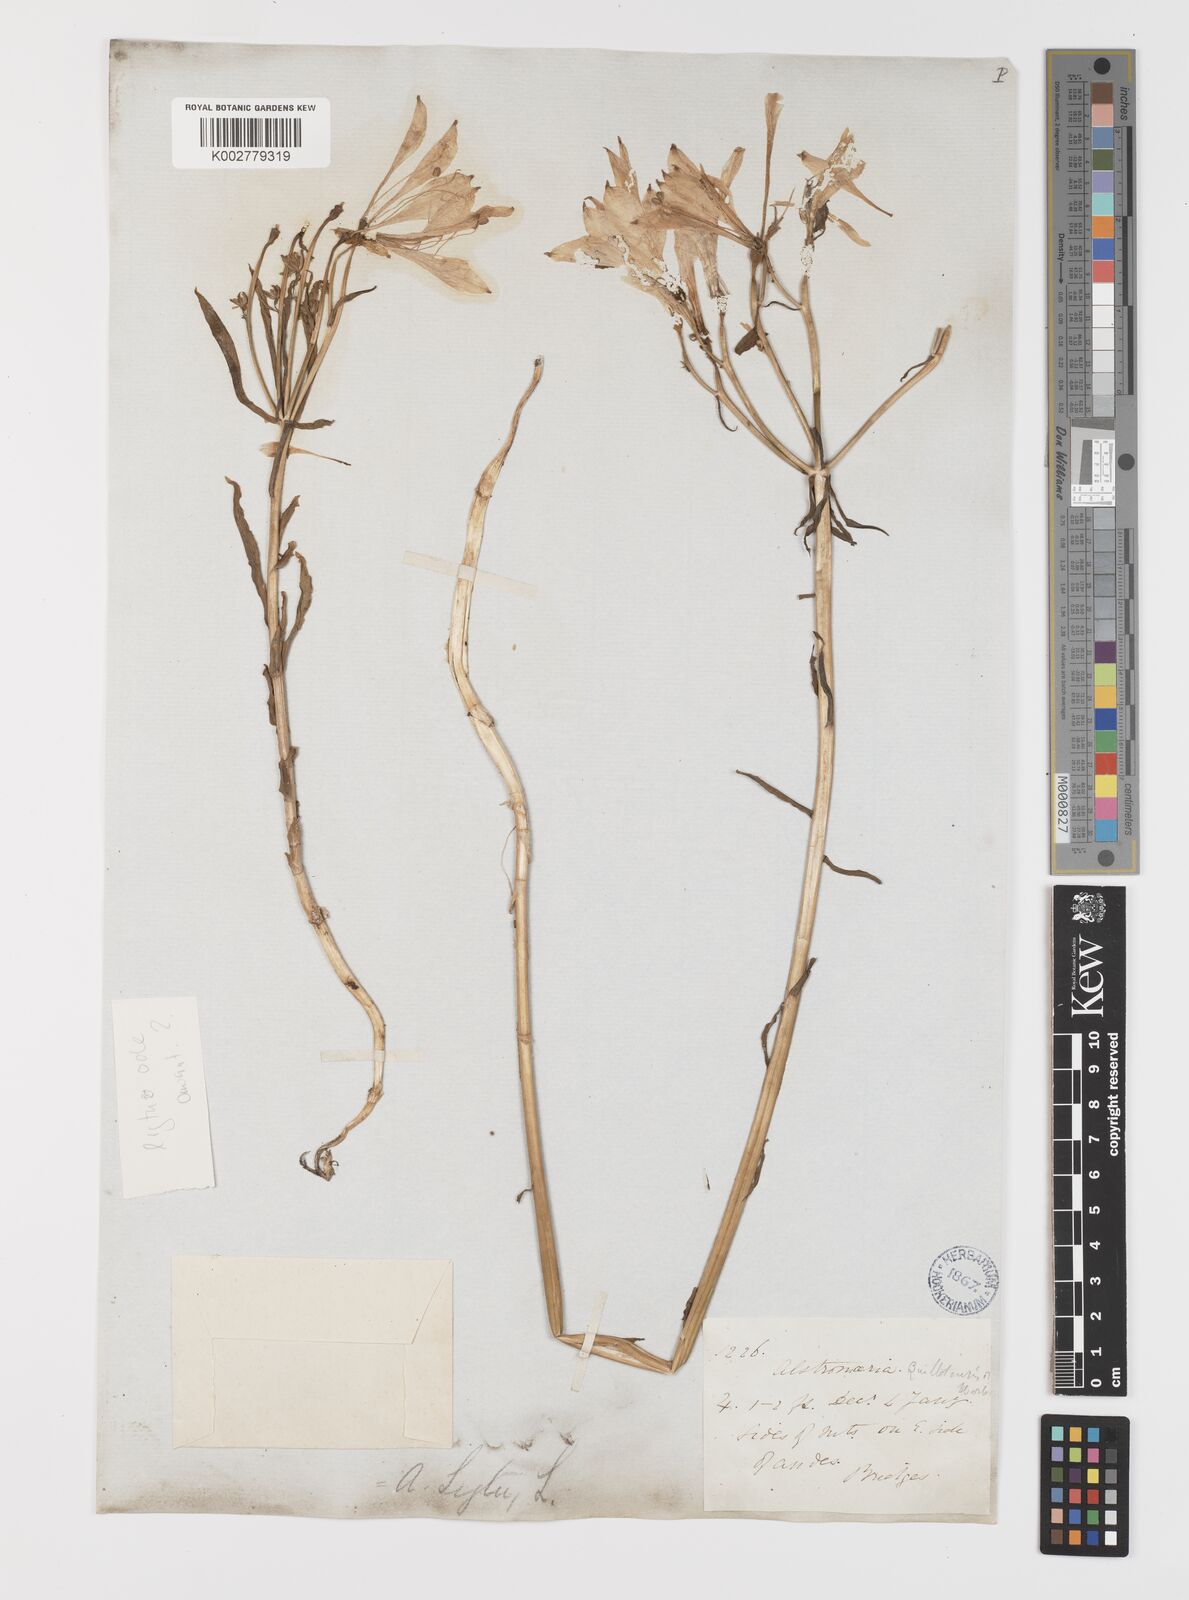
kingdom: Plantae
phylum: Tracheophyta
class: Liliopsida
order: Liliales
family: Alstroemeriaceae
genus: Alstroemeria
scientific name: Alstroemeria ligtu
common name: St. martin's-flower
